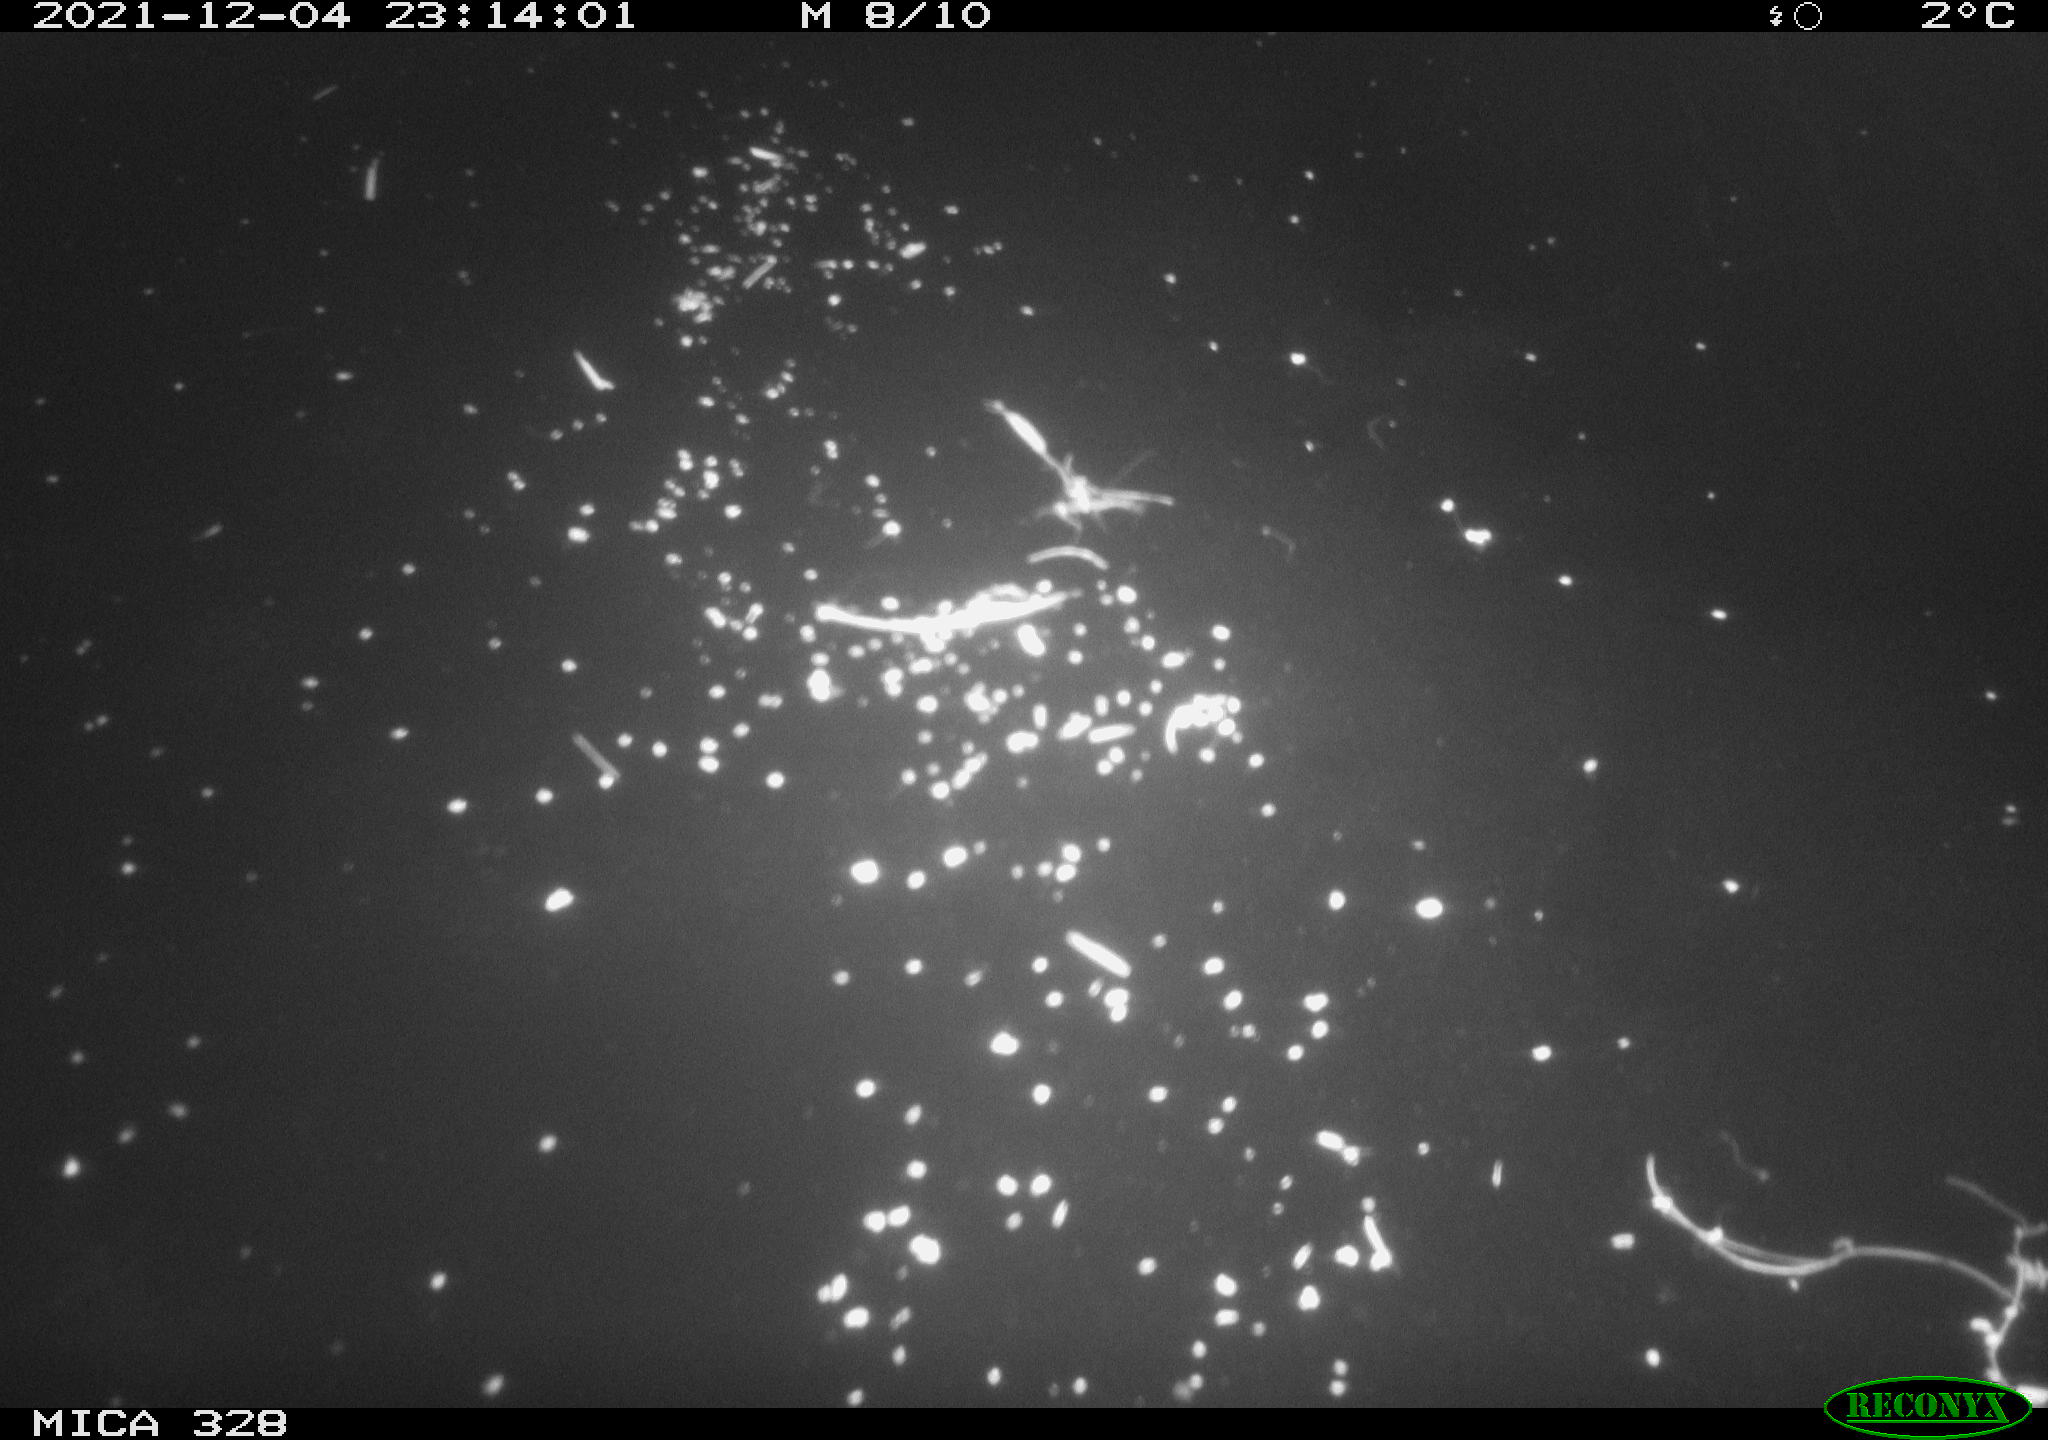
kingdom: Animalia
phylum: Chordata
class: Aves
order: Anseriformes
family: Anatidae
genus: Anas
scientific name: Anas platyrhynchos
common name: Mallard
